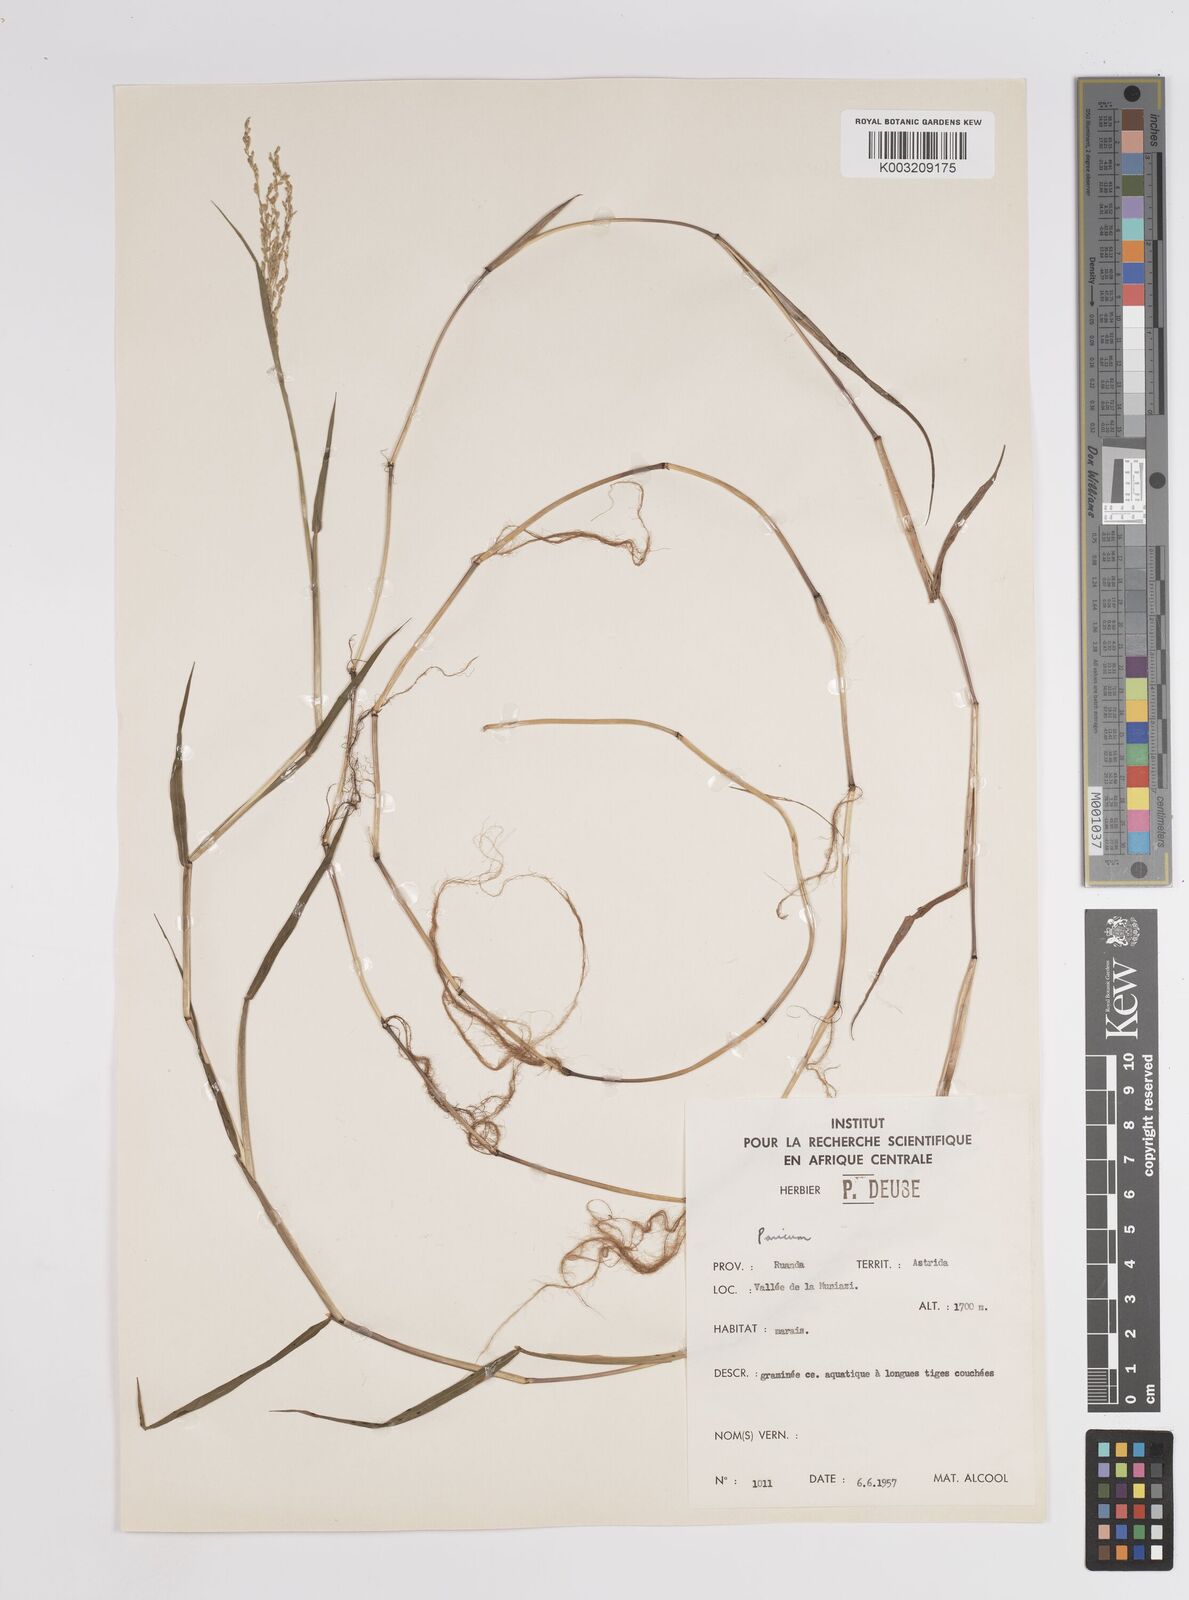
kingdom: Plantae
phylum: Tracheophyta
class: Liliopsida
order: Poales
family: Poaceae
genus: Panicum
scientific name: Panicum
